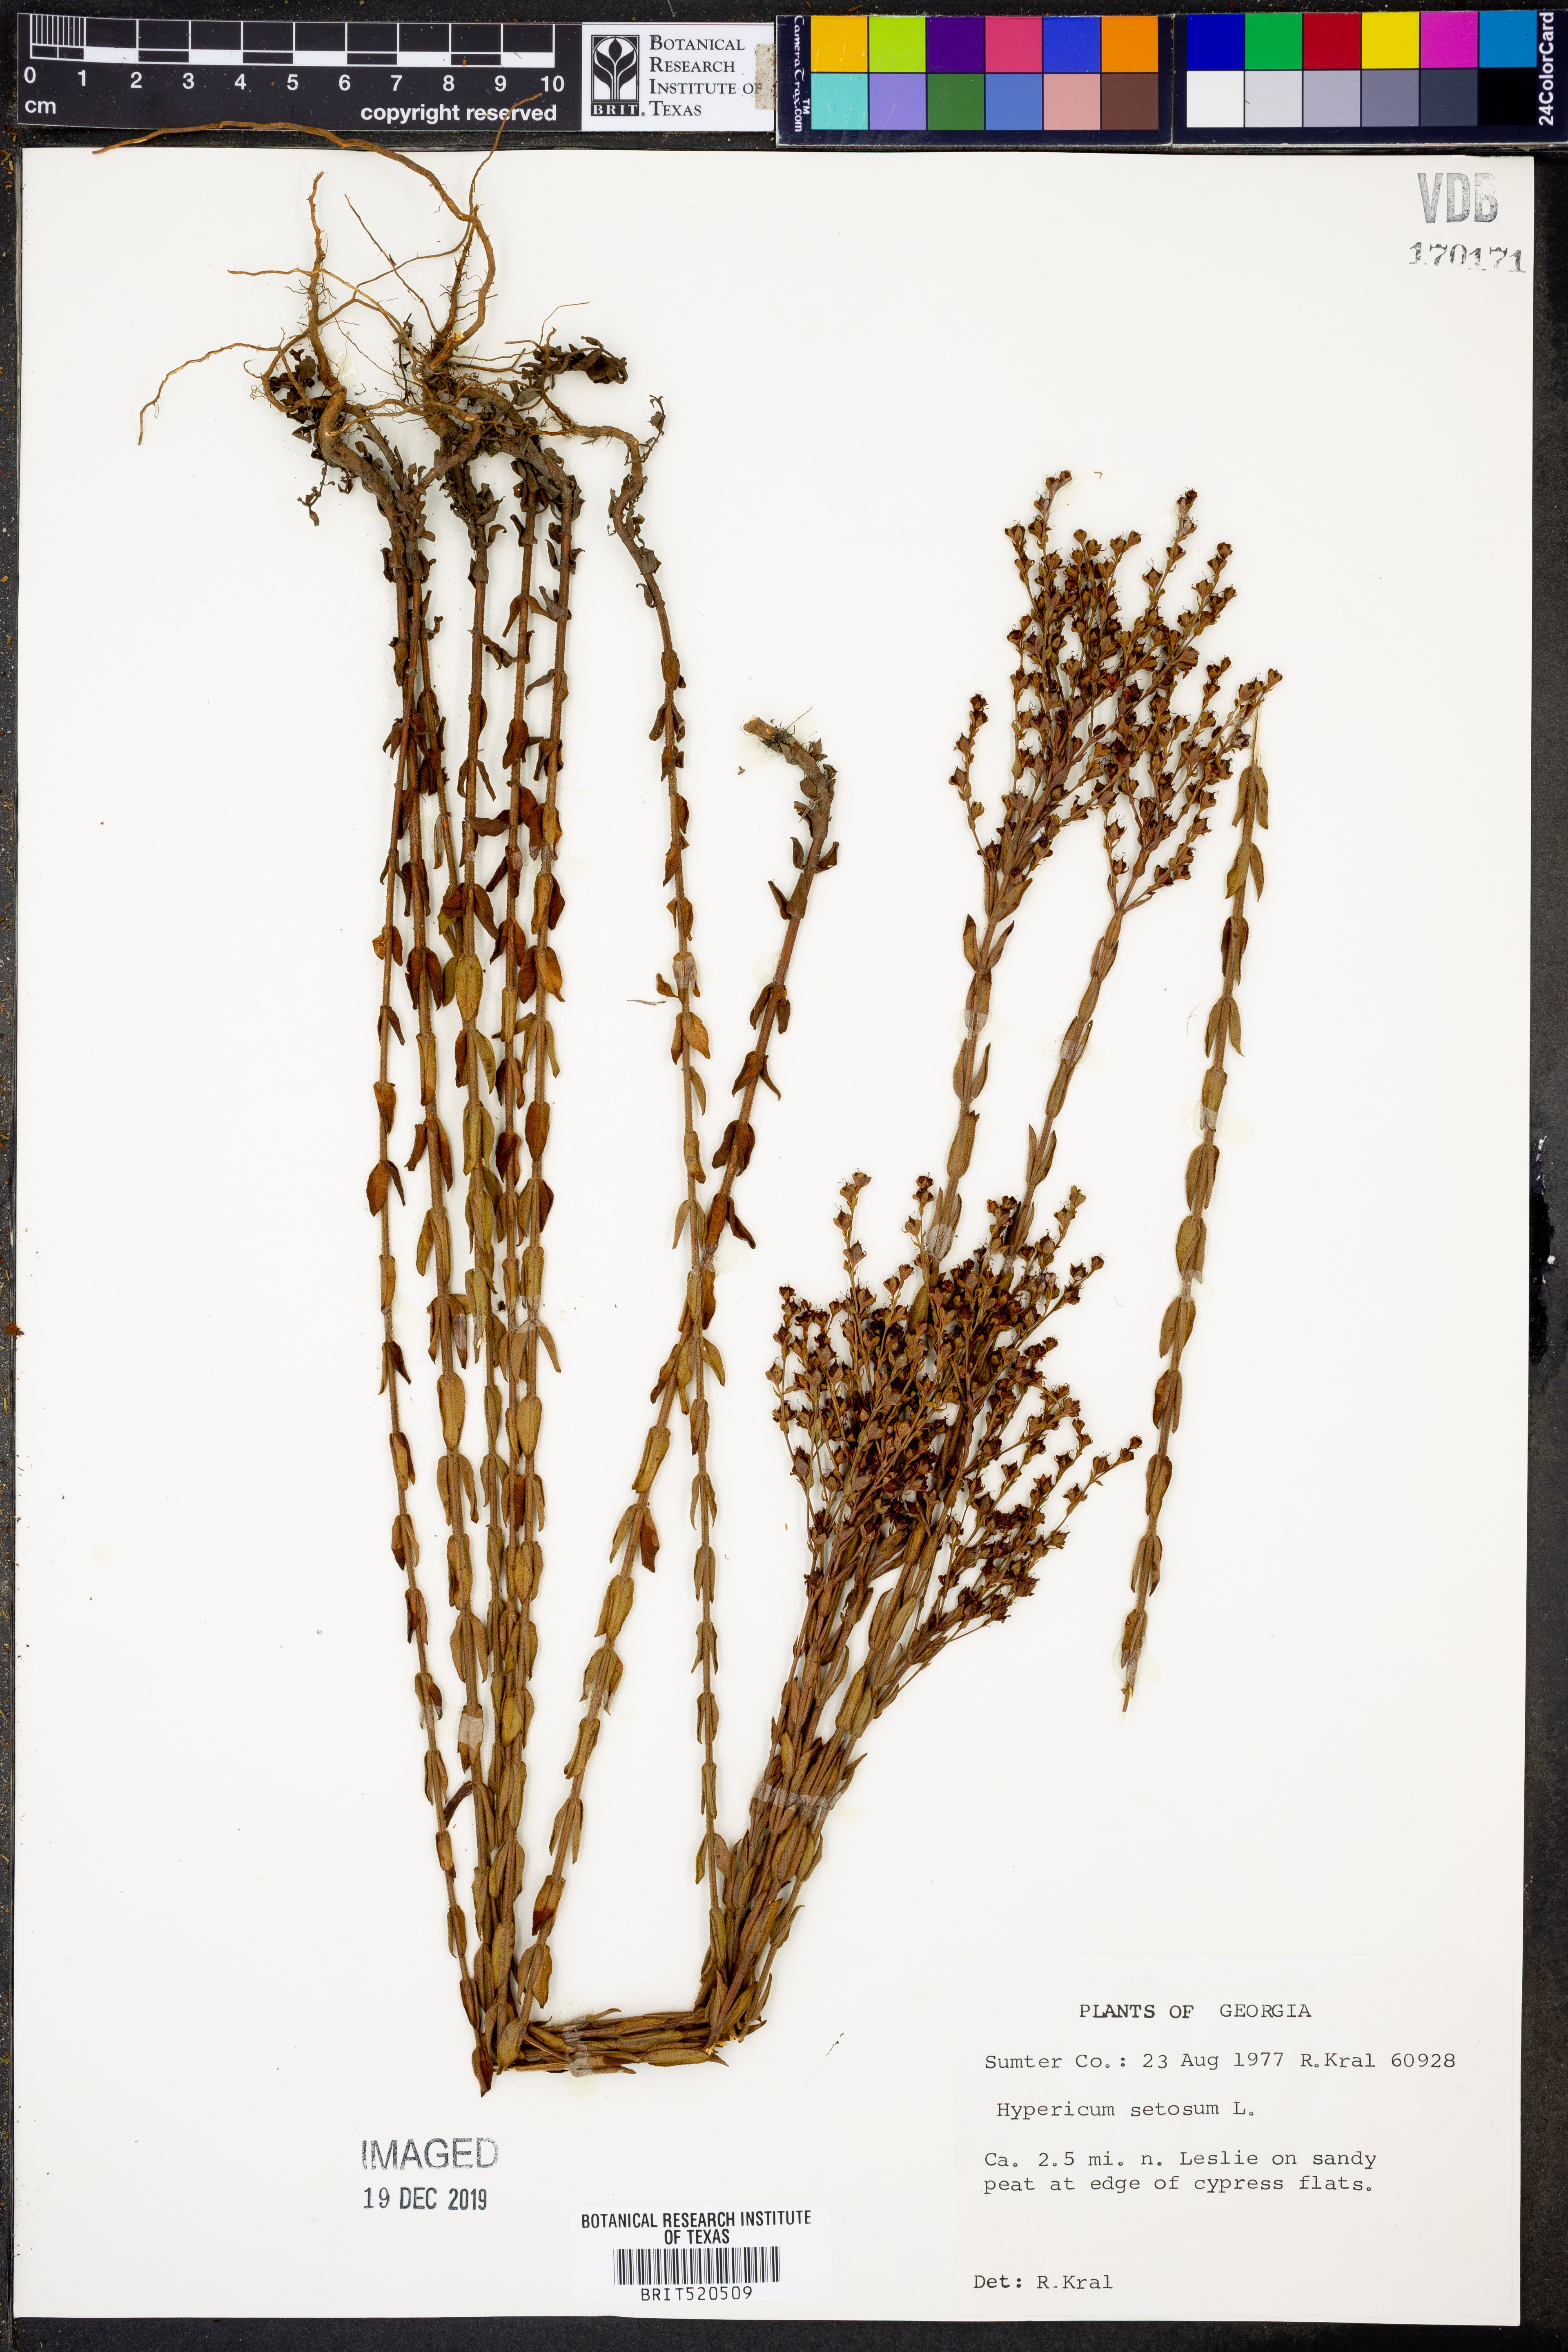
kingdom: Plantae
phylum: Tracheophyta
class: Magnoliopsida
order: Malpighiales
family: Hypericaceae
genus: Hypericum
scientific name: Hypericum setosum
